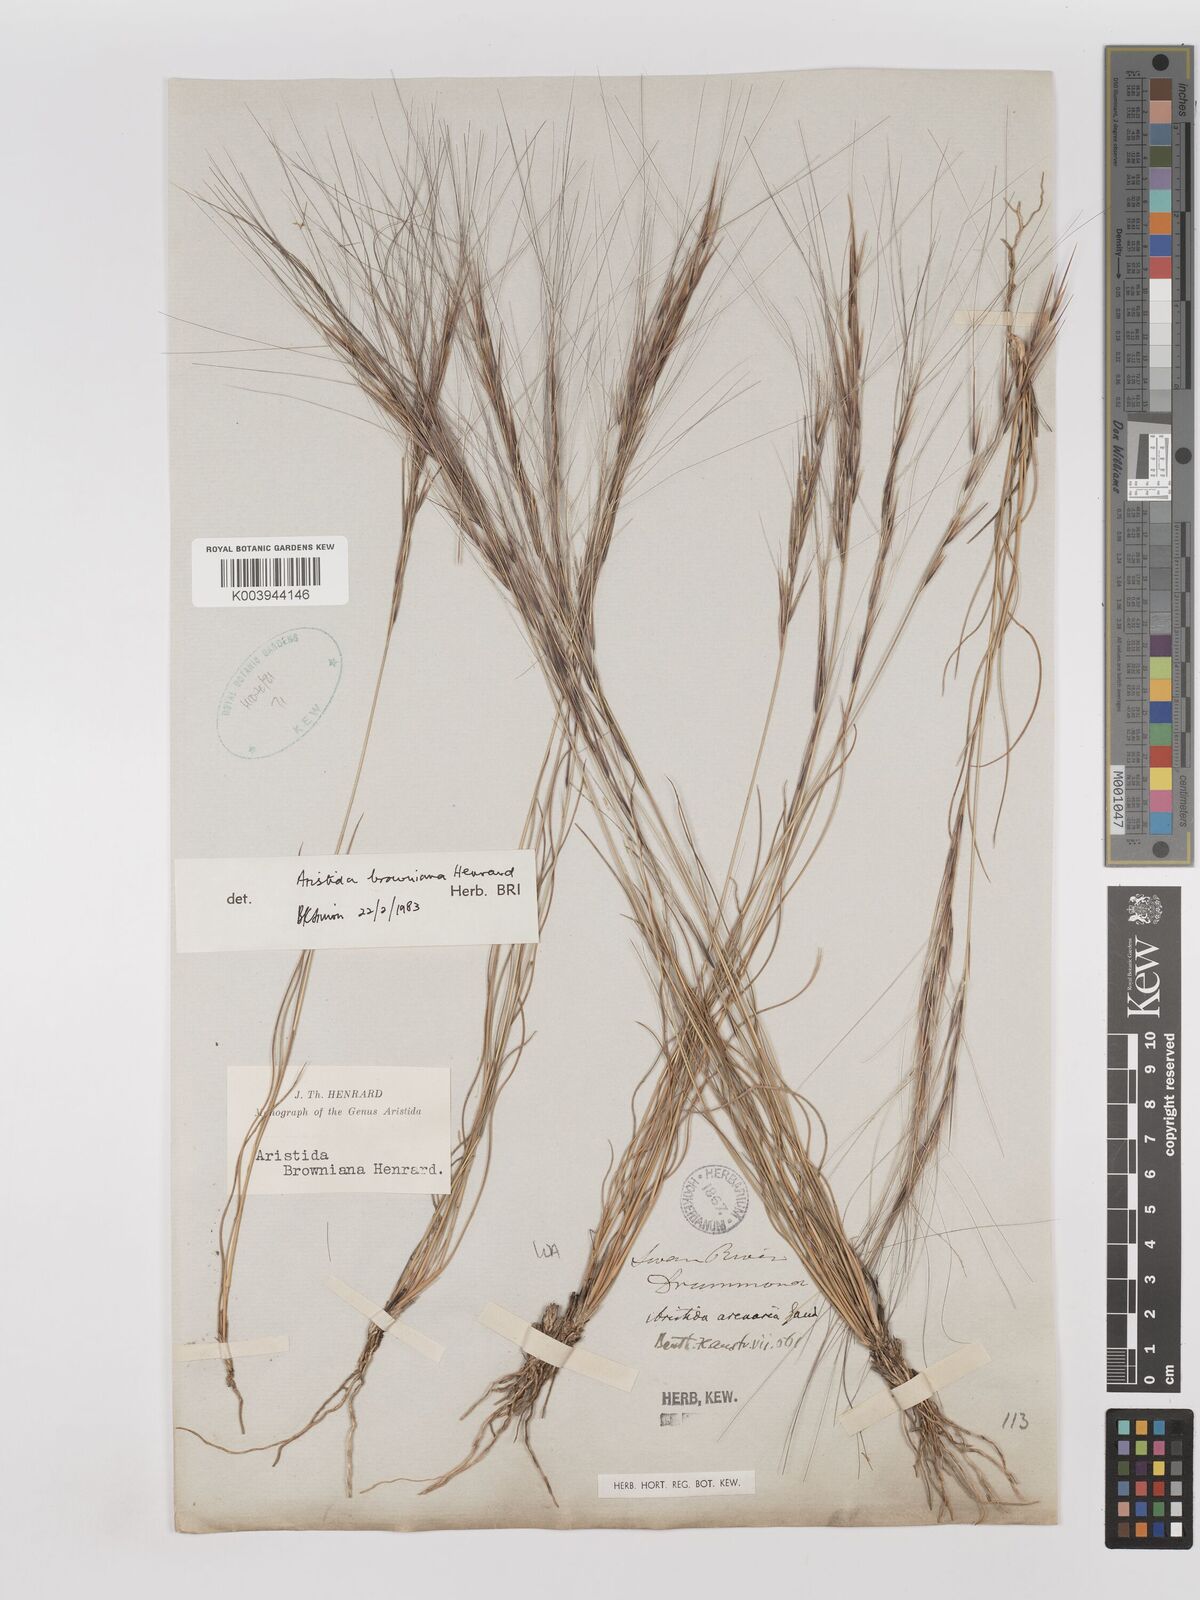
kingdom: Plantae
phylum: Tracheophyta
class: Liliopsida
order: Poales
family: Poaceae
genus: Aristida
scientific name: Aristida holathera
